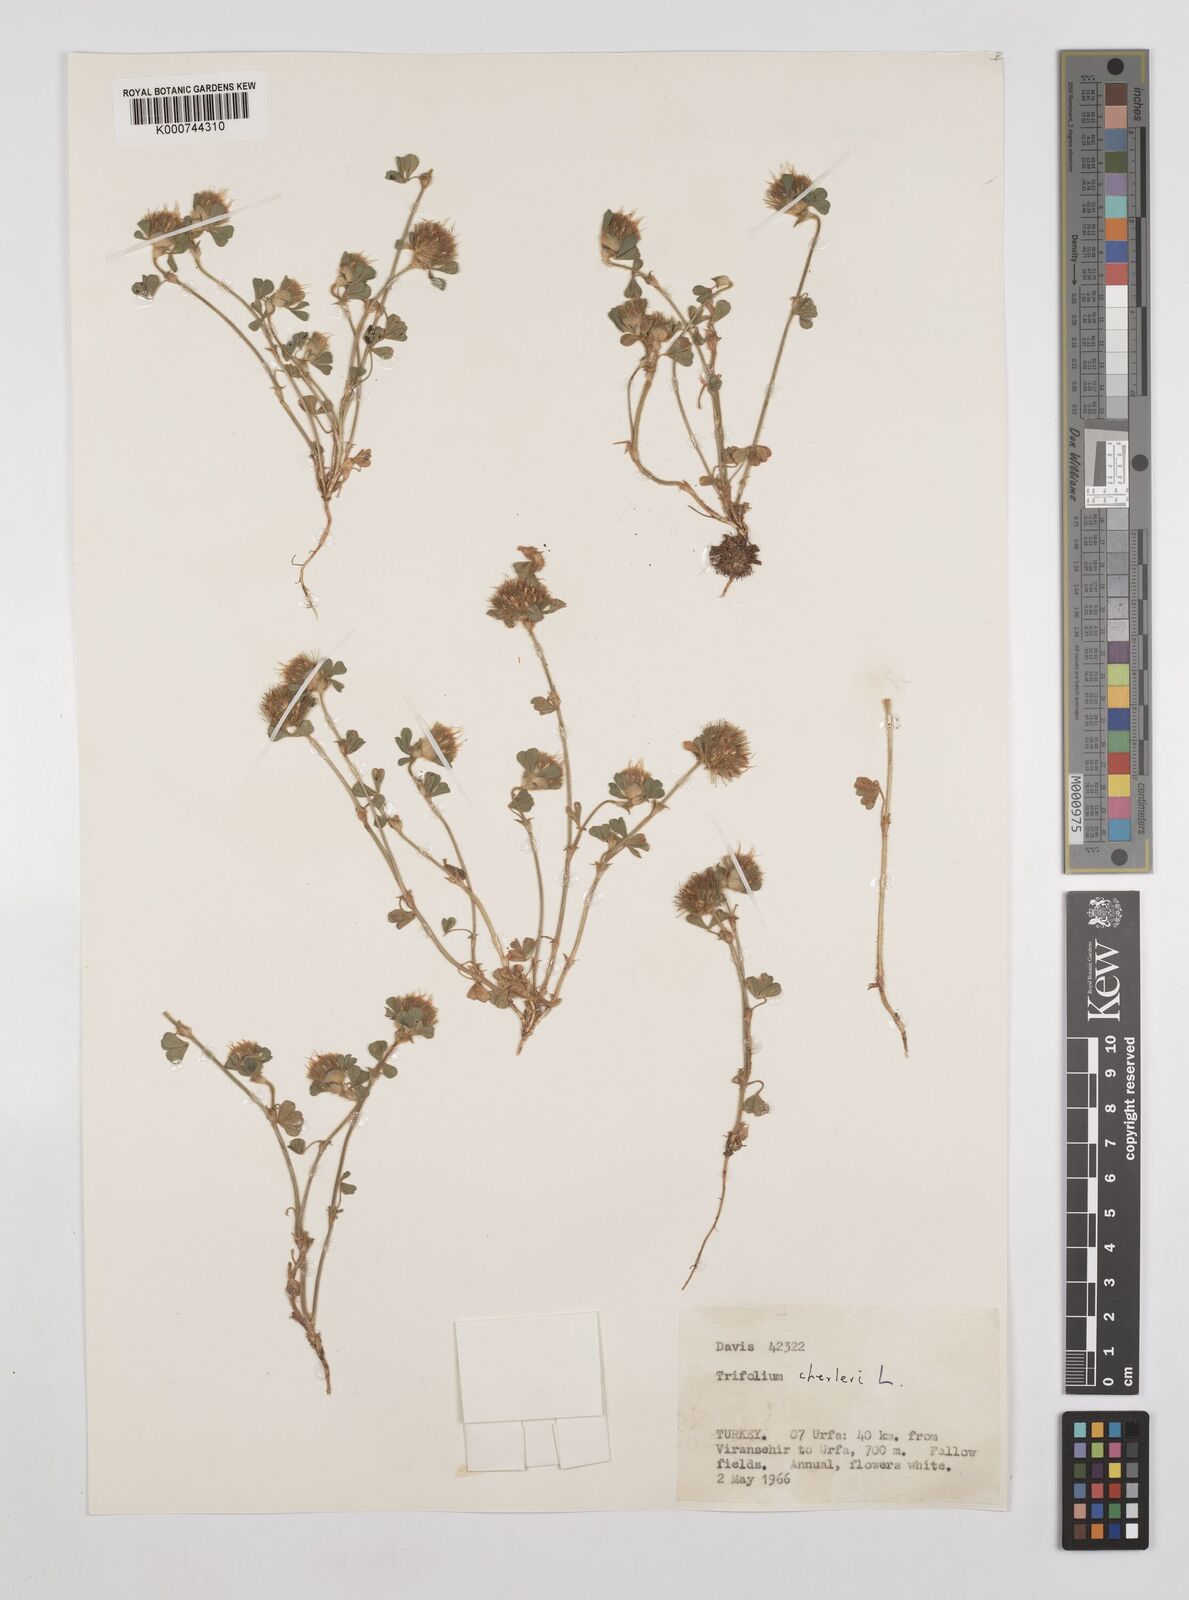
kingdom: Plantae
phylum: Tracheophyta
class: Magnoliopsida
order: Fabales
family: Fabaceae
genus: Trifolium
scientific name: Trifolium cherleri
